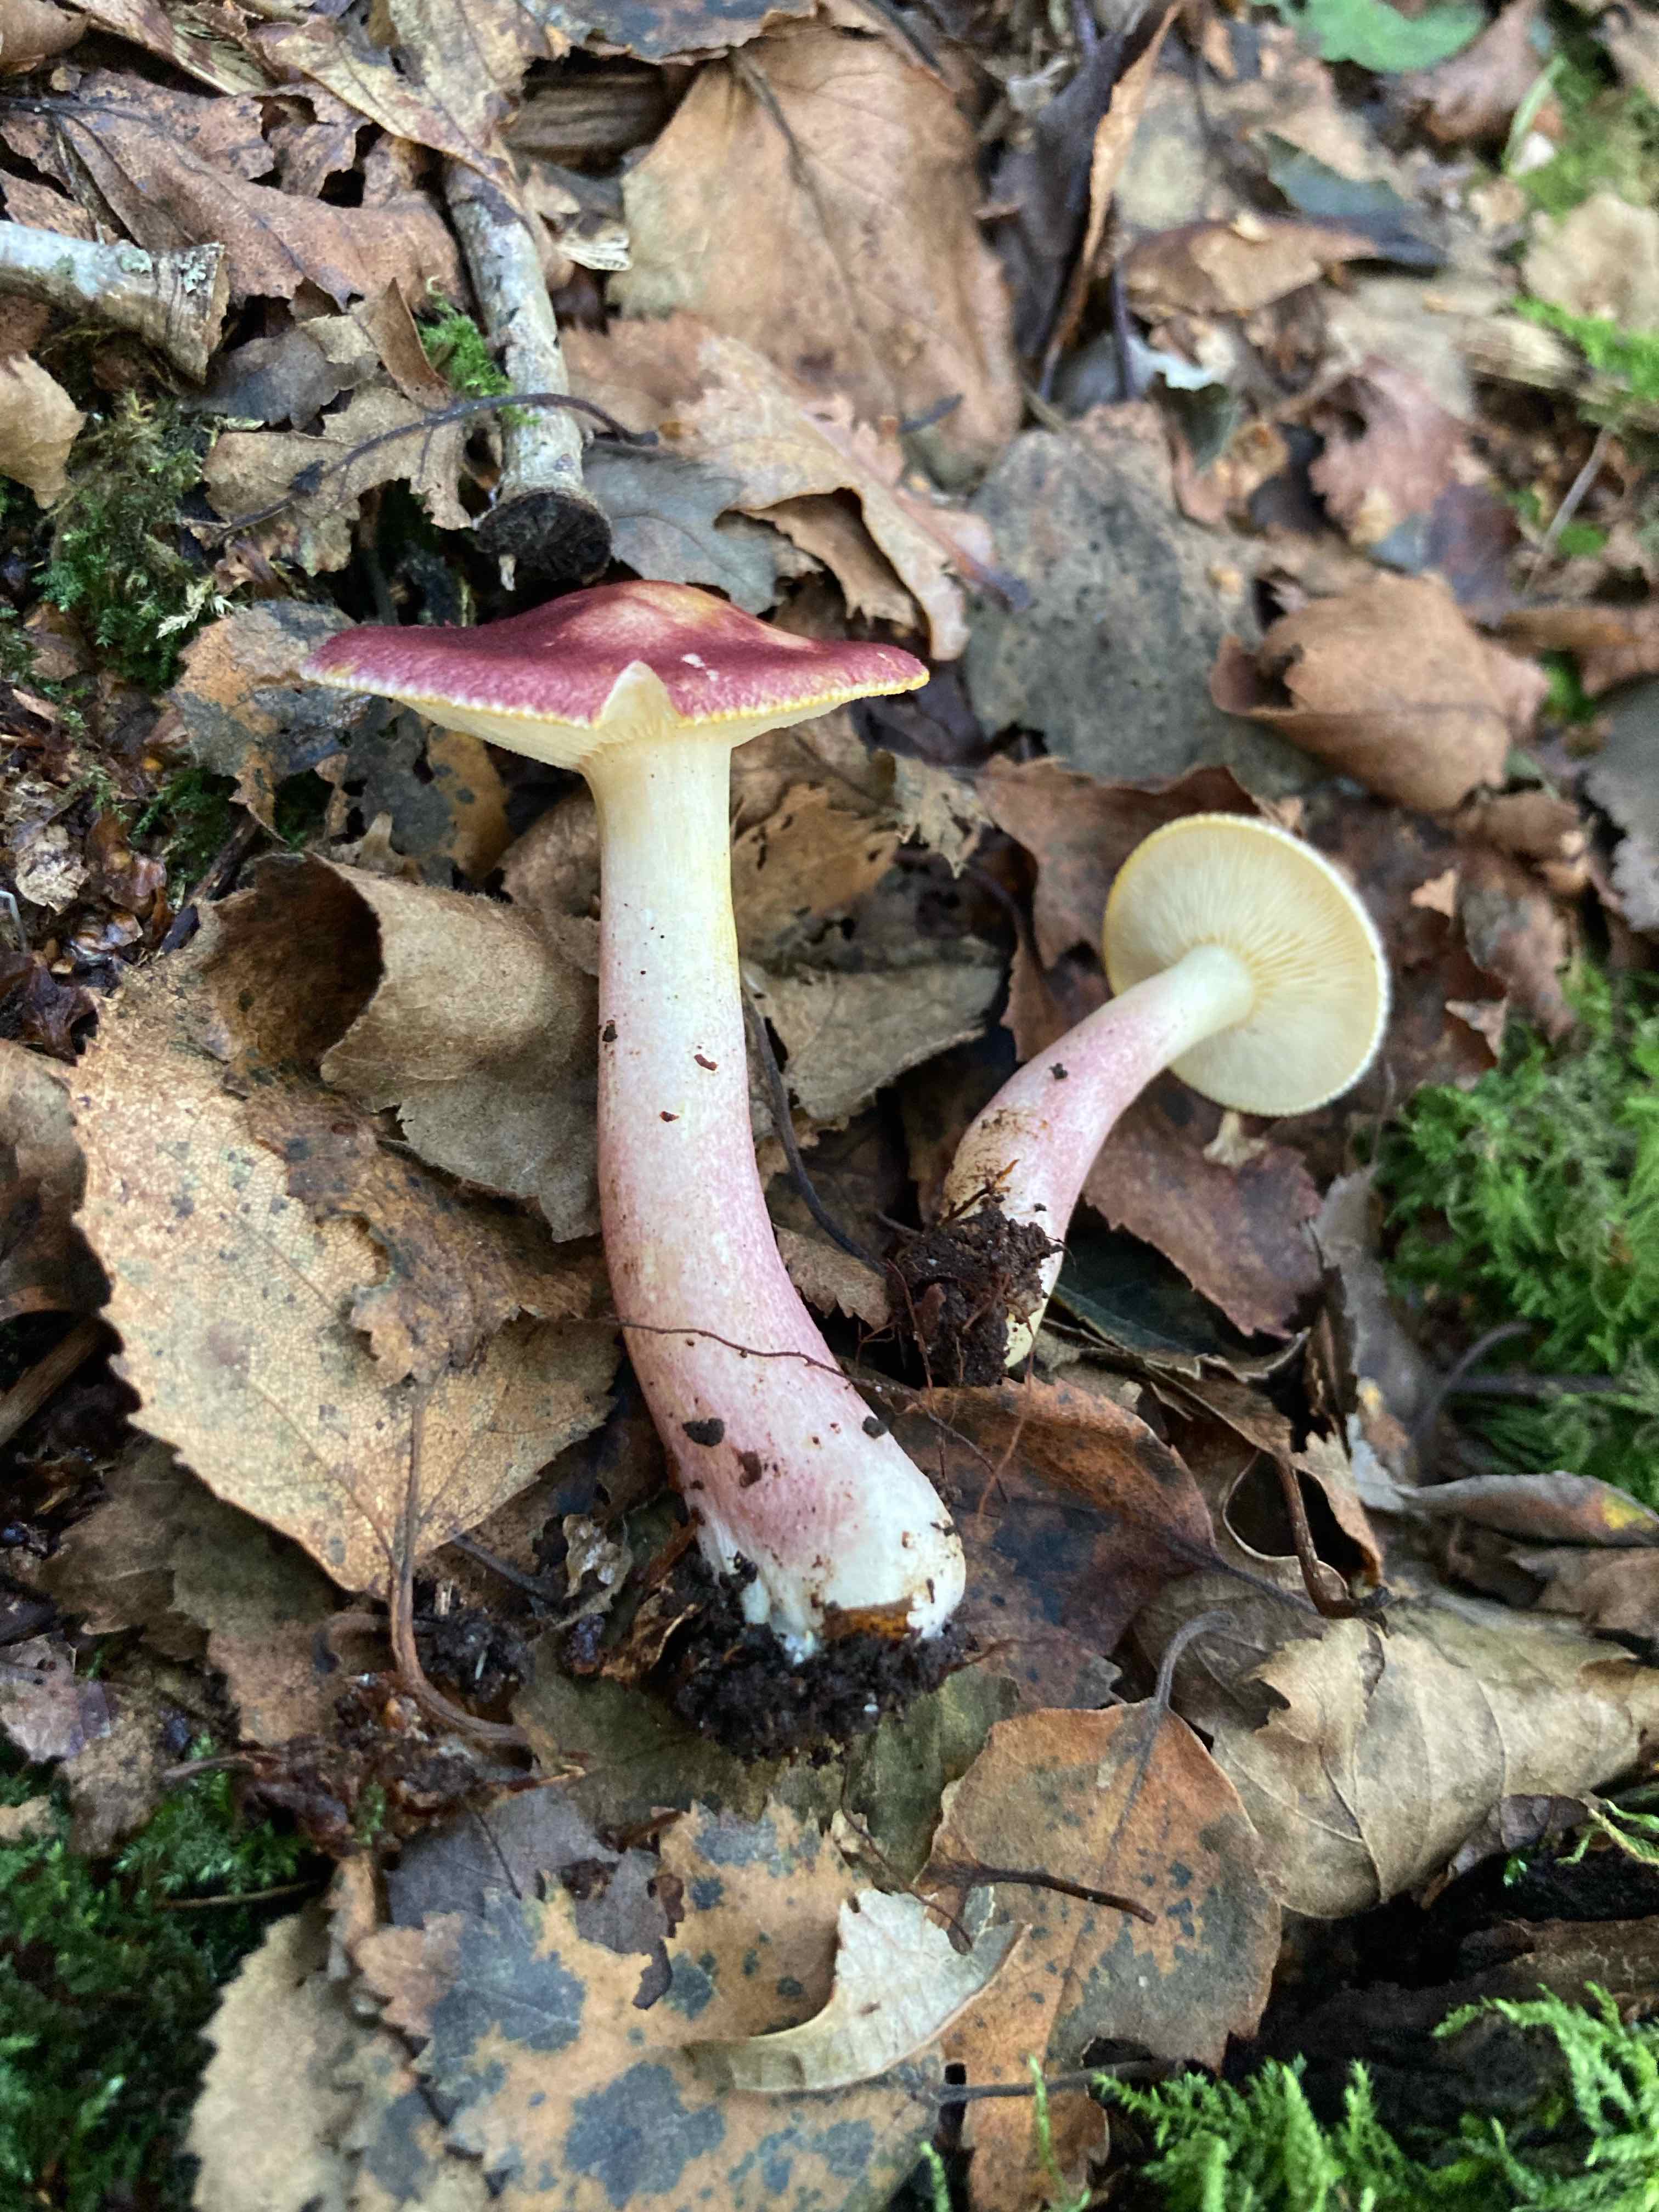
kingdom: Fungi
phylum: Basidiomycota
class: Agaricomycetes
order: Agaricales
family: Tricholomataceae
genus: Tricholomopsis
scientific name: Tricholomopsis rutilans
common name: purpur-væbnerhat
